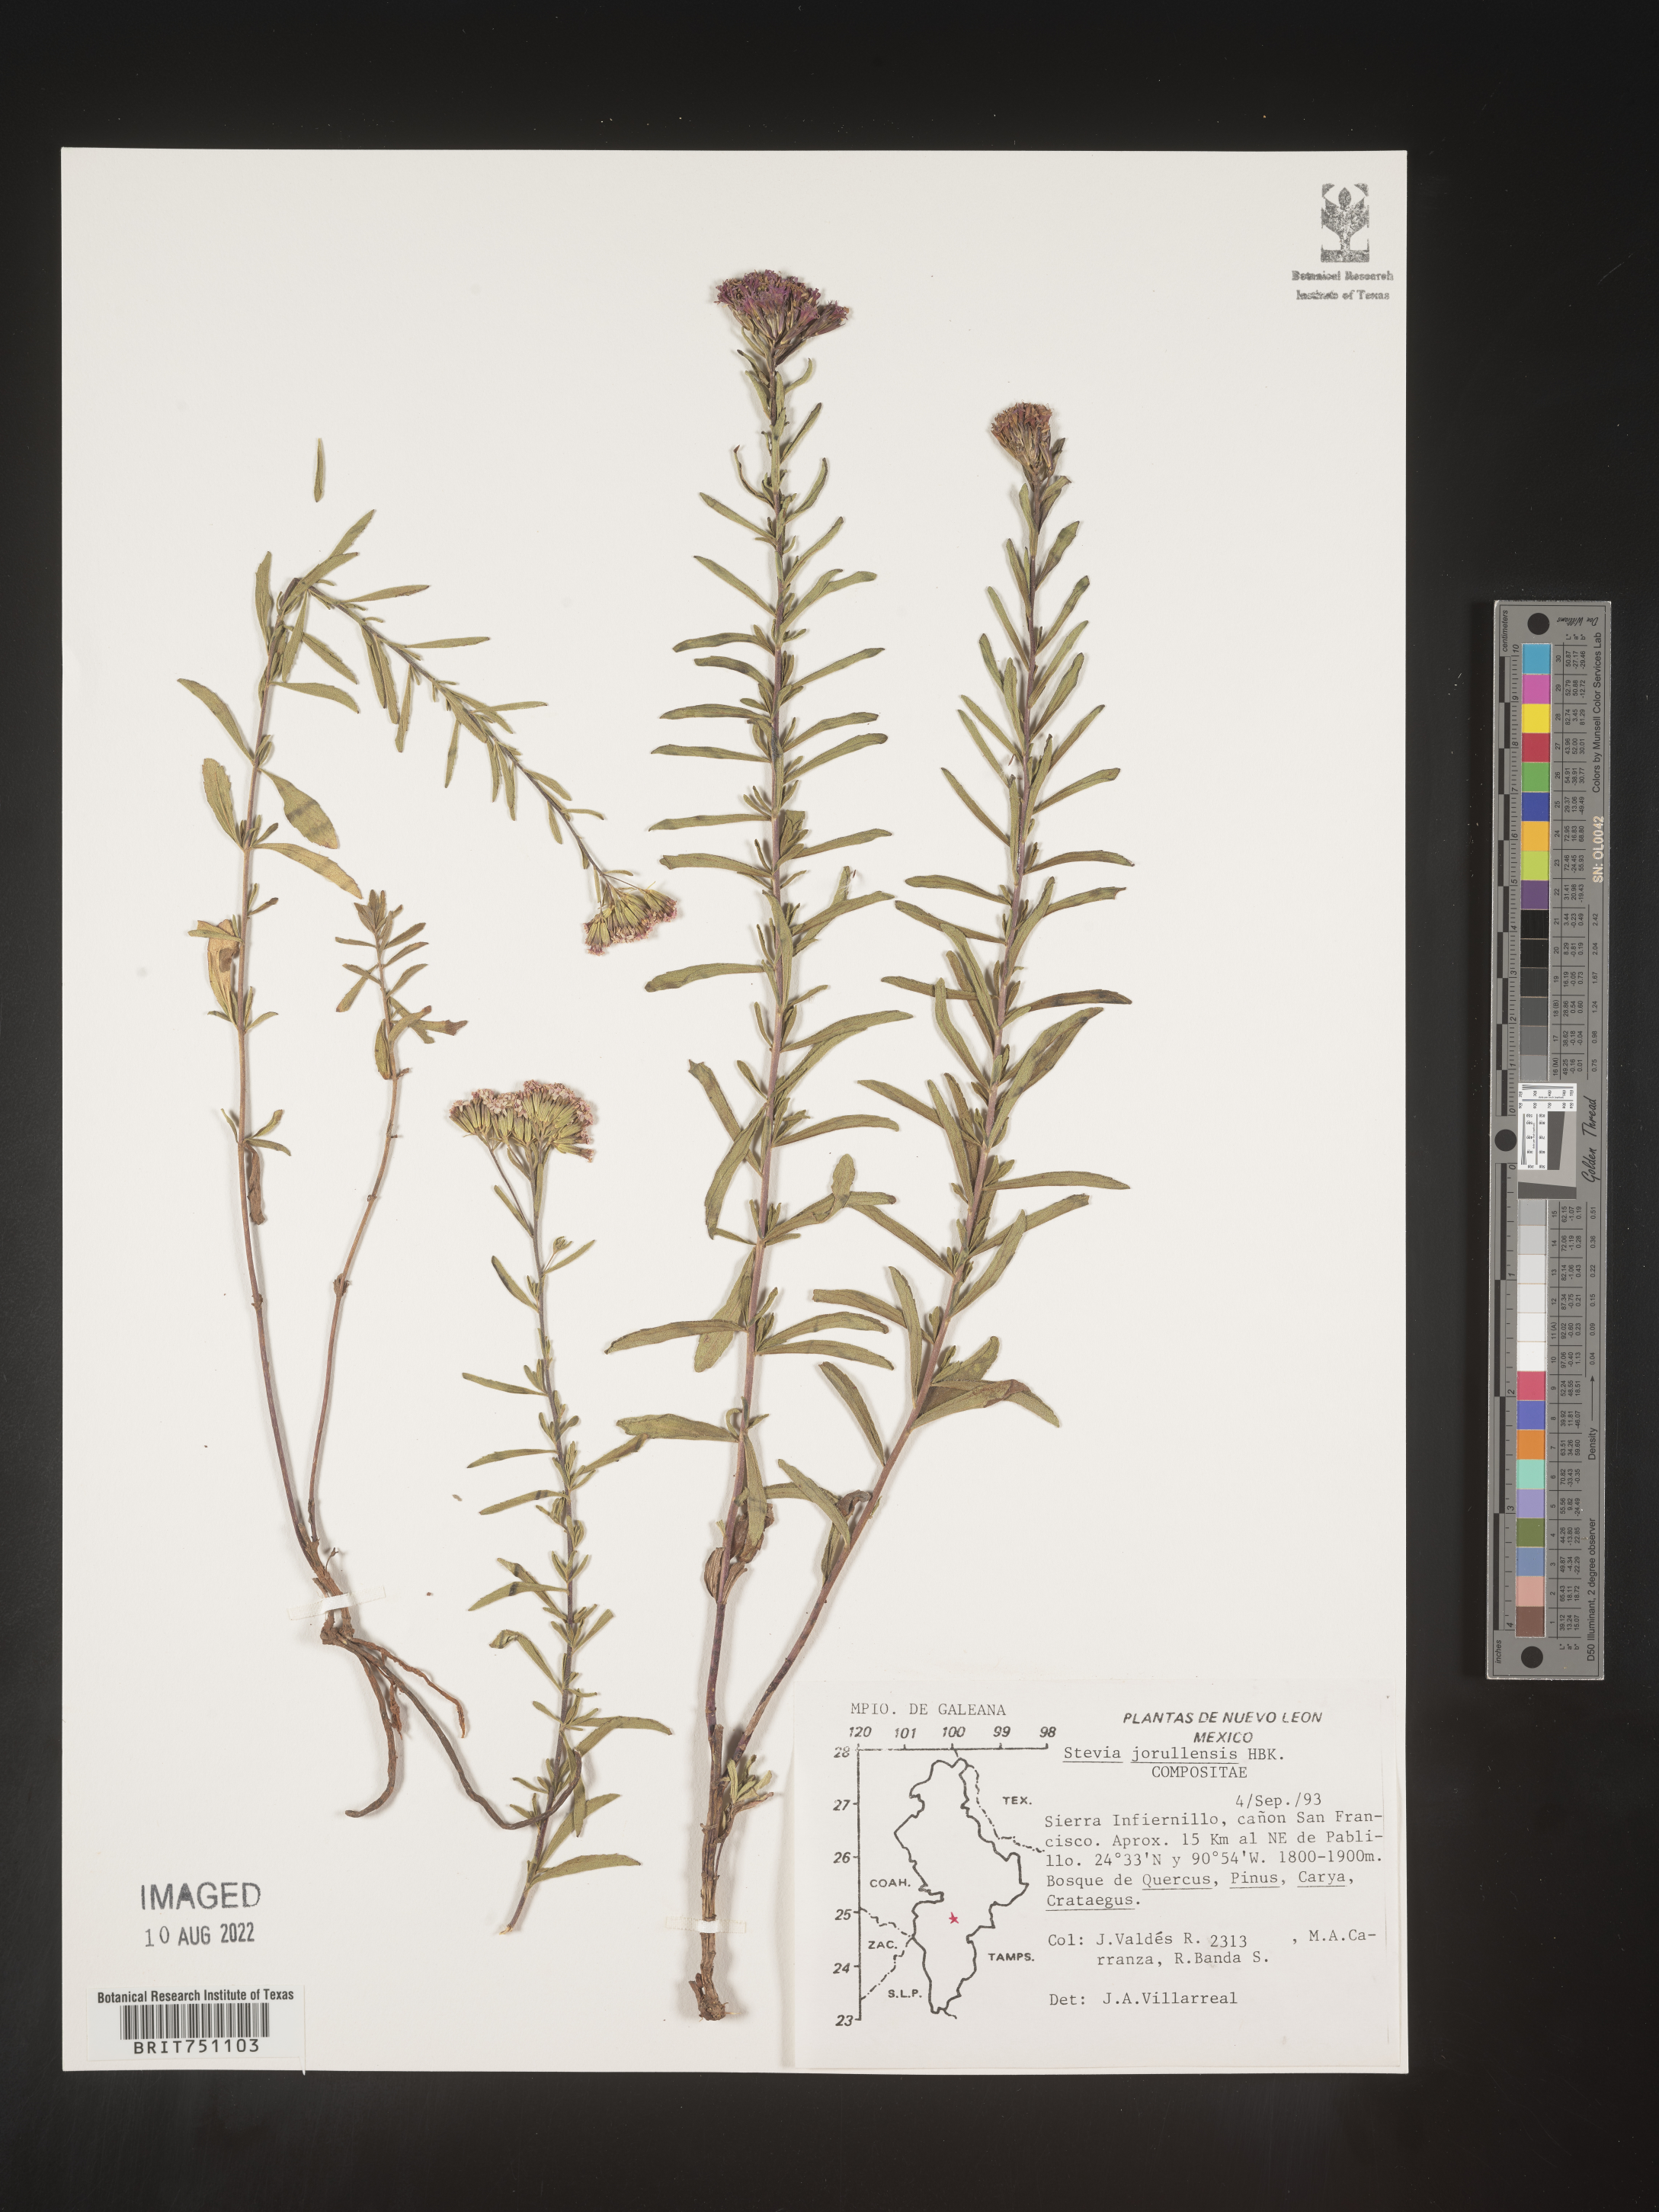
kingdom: Plantae
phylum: Tracheophyta
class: Magnoliopsida
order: Asterales
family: Asteraceae
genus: Stevia
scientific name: Stevia jorullensis
